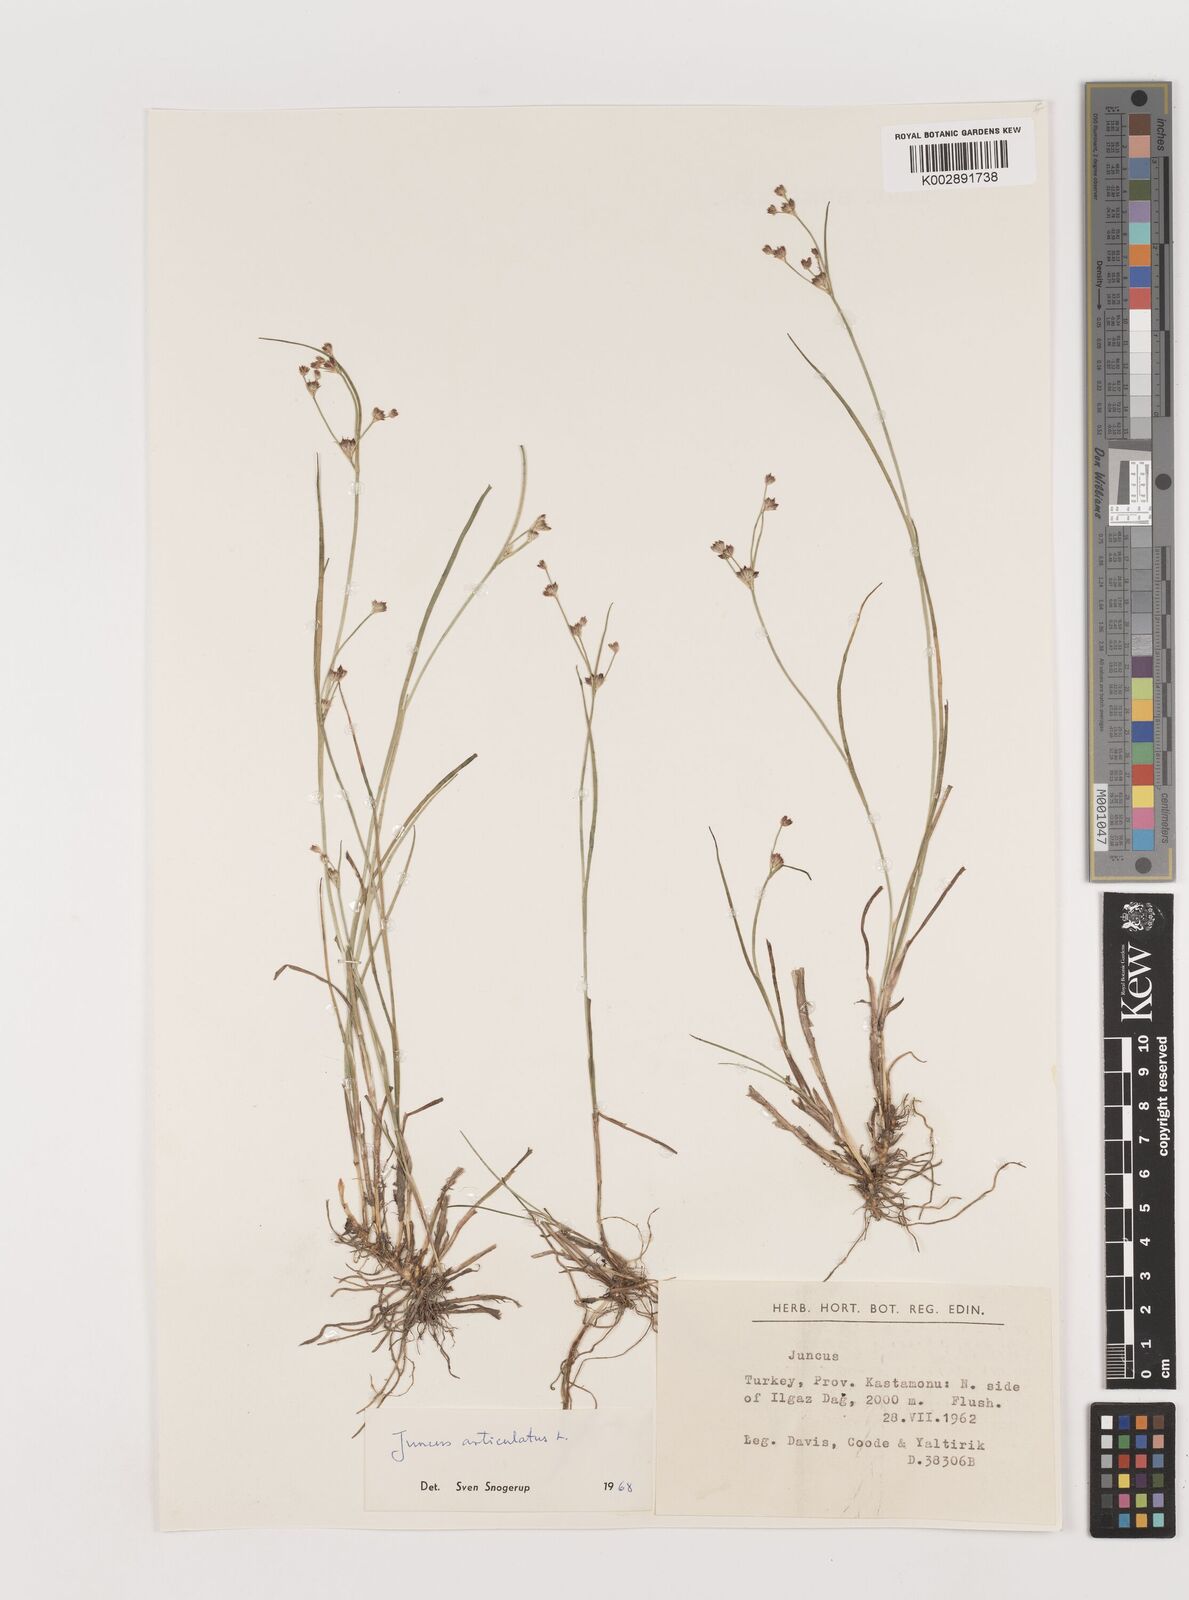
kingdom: Plantae
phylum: Tracheophyta
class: Liliopsida
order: Poales
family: Juncaceae
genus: Juncus
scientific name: Juncus articulatus
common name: Jointed rush
